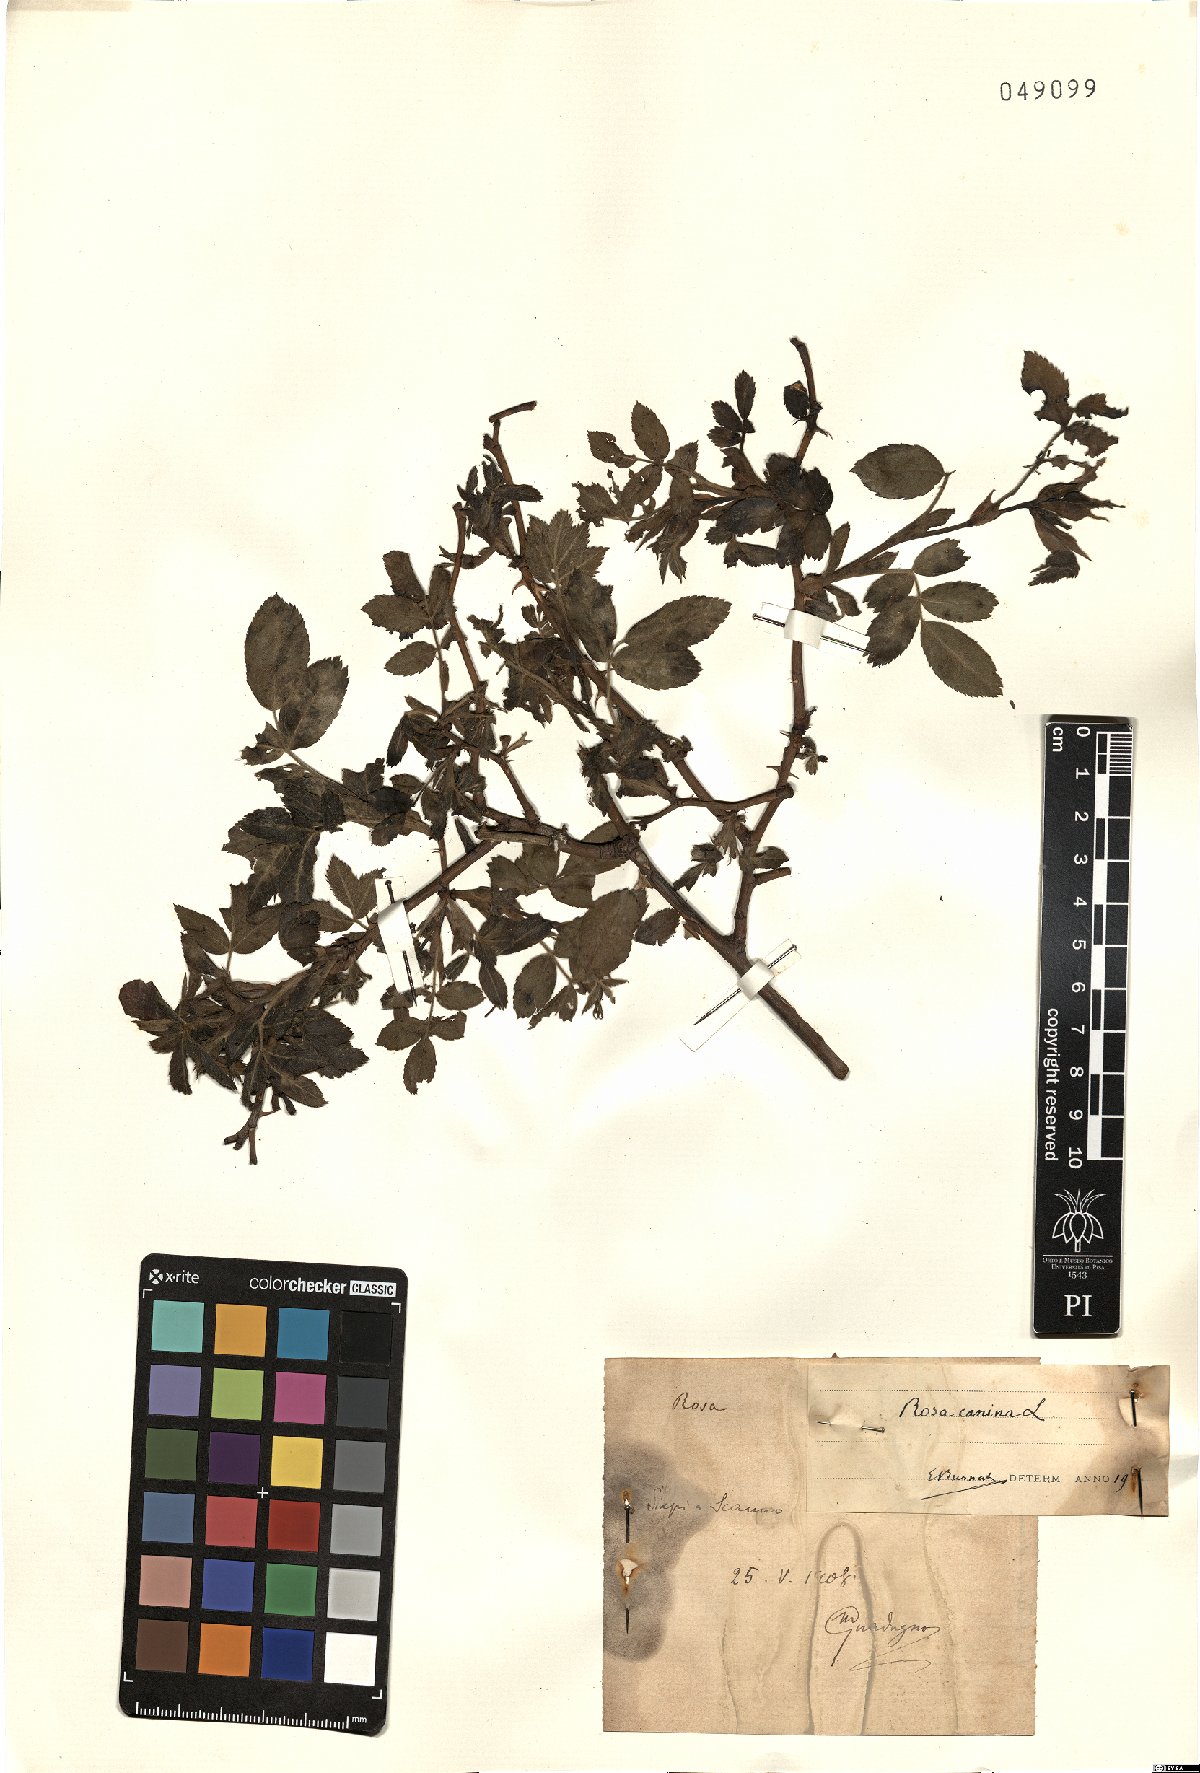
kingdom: Plantae
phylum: Tracheophyta
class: Magnoliopsida
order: Rosales
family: Rosaceae
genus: Rosa
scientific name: Rosa canina
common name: Dog rose
